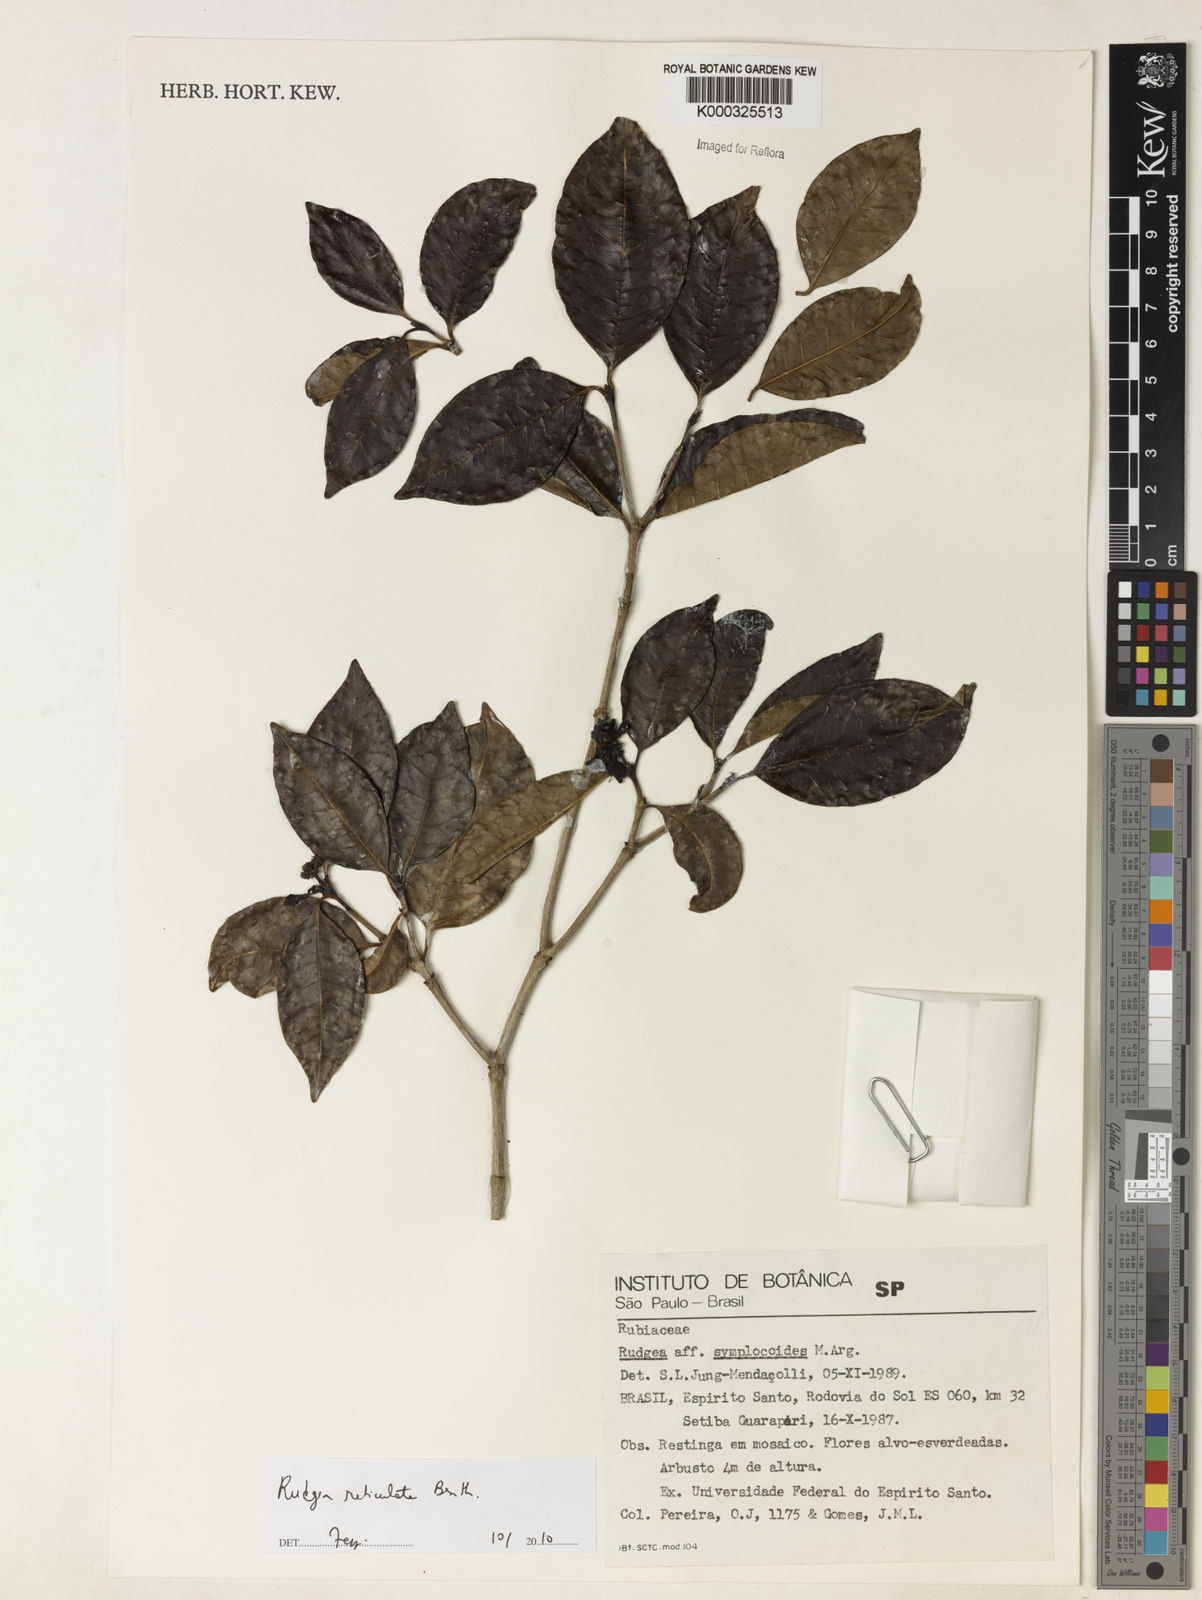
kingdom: Plantae
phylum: Tracheophyta
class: Magnoliopsida
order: Gentianales
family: Rubiaceae
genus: Rudgea
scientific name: Rudgea reticulata
